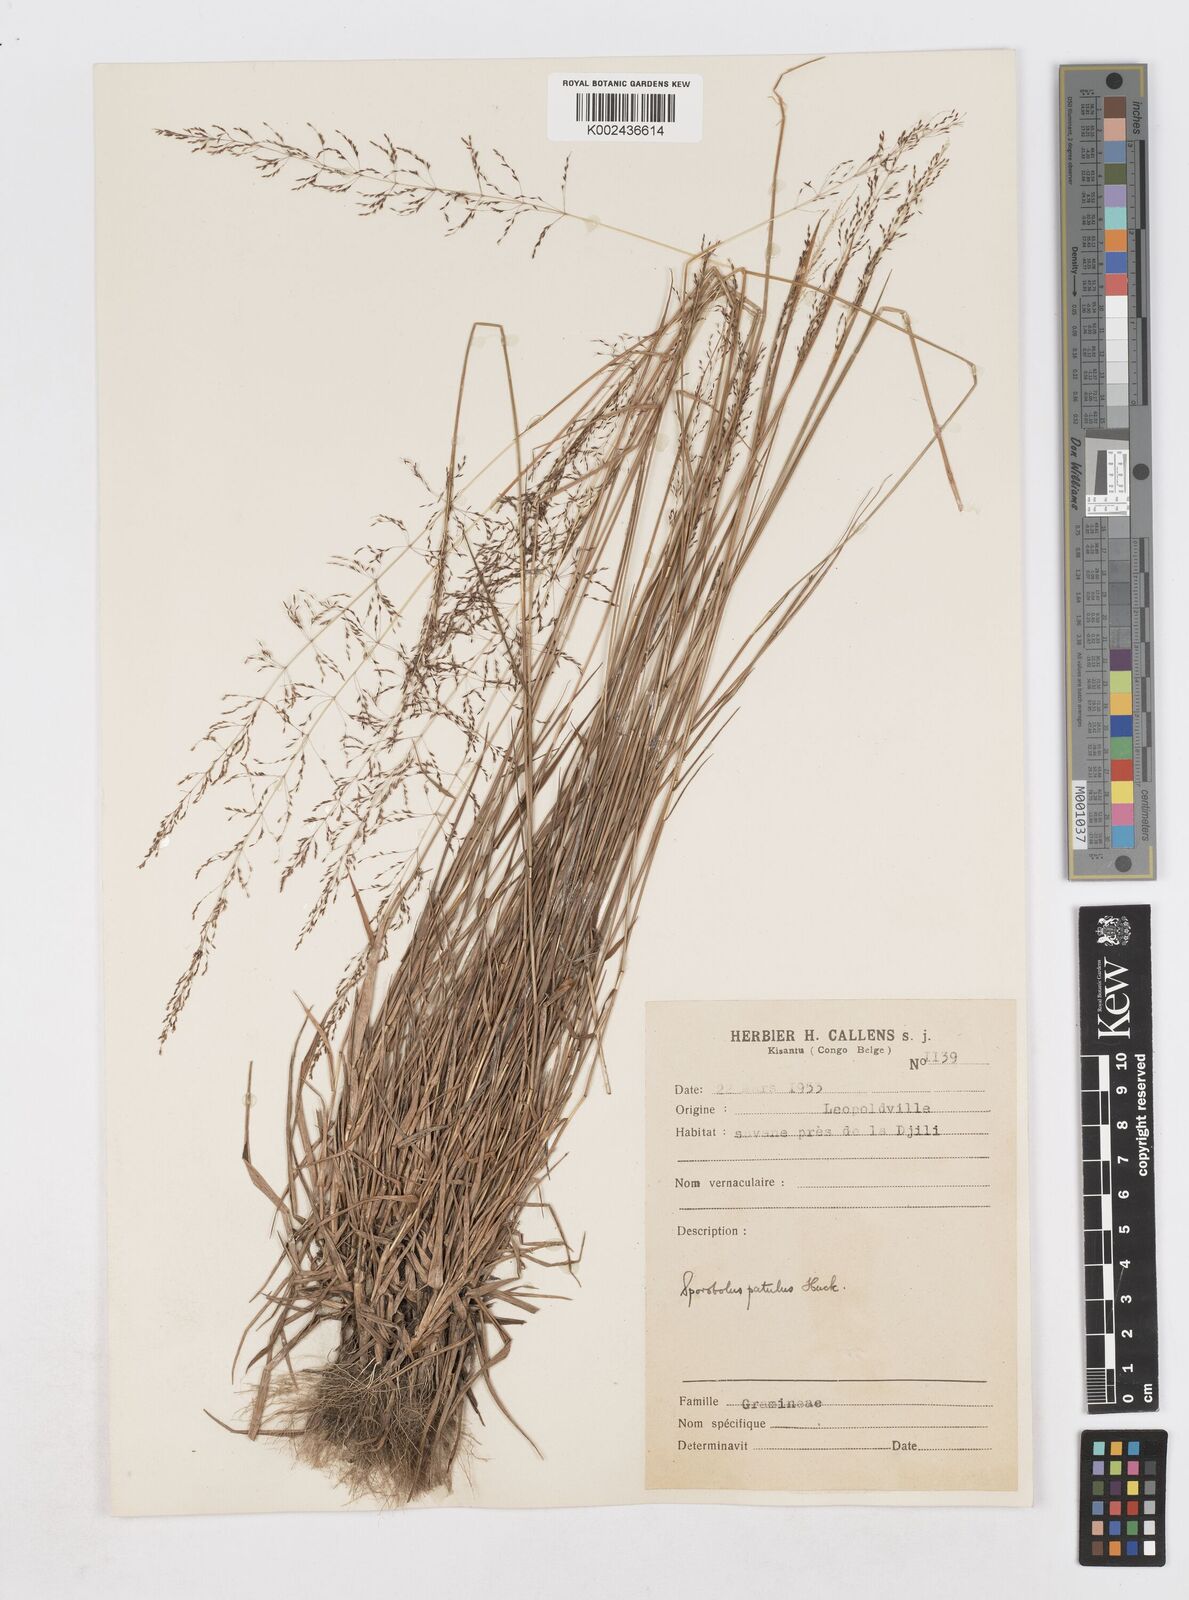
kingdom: Plantae
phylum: Tracheophyta
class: Liliopsida
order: Poales
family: Poaceae
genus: Sporobolus
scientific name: Sporobolus paniculatus
